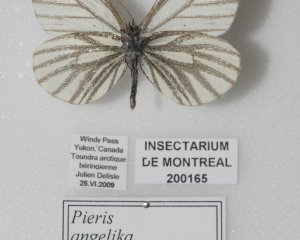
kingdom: Animalia
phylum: Arthropoda
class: Insecta
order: Lepidoptera
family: Pieridae
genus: Pieris
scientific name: Pieris angelika
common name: Arctic White
